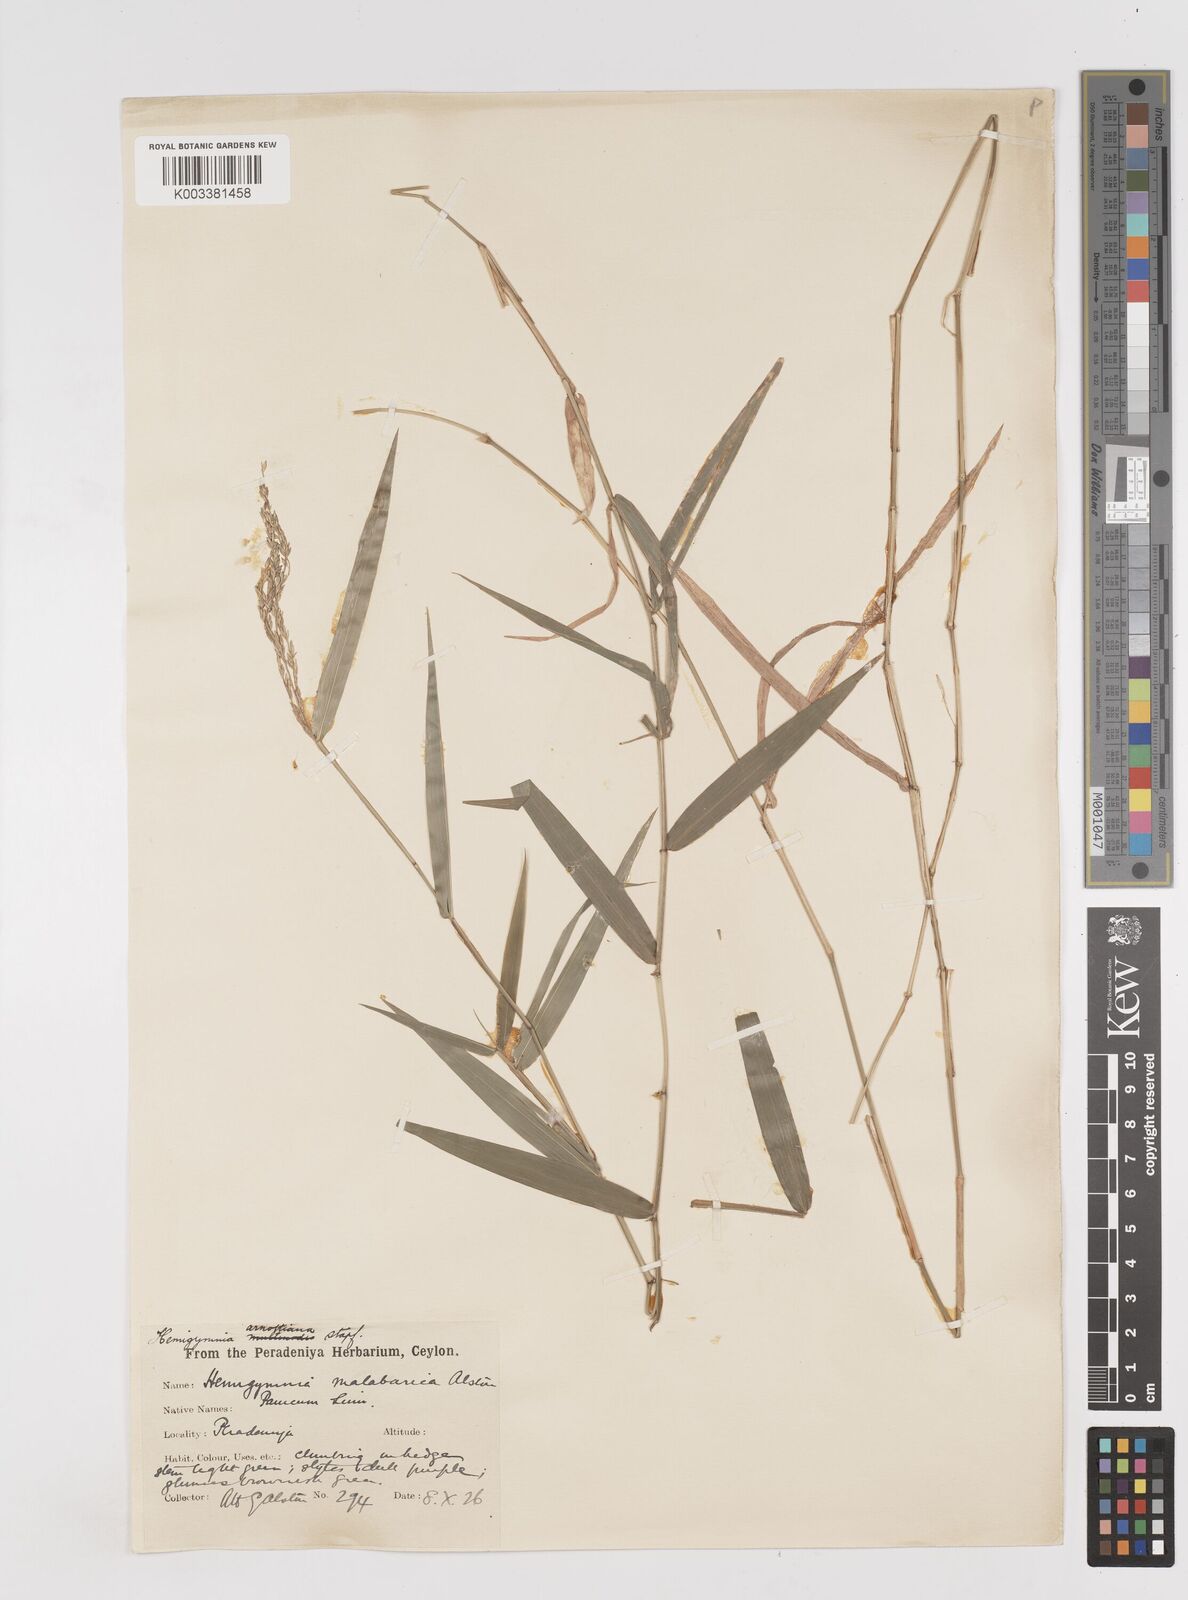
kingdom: Plantae
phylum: Tracheophyta
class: Liliopsida
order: Poales
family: Poaceae
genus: Ottochloa
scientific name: Ottochloa nodosa
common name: Slender-panic grass
